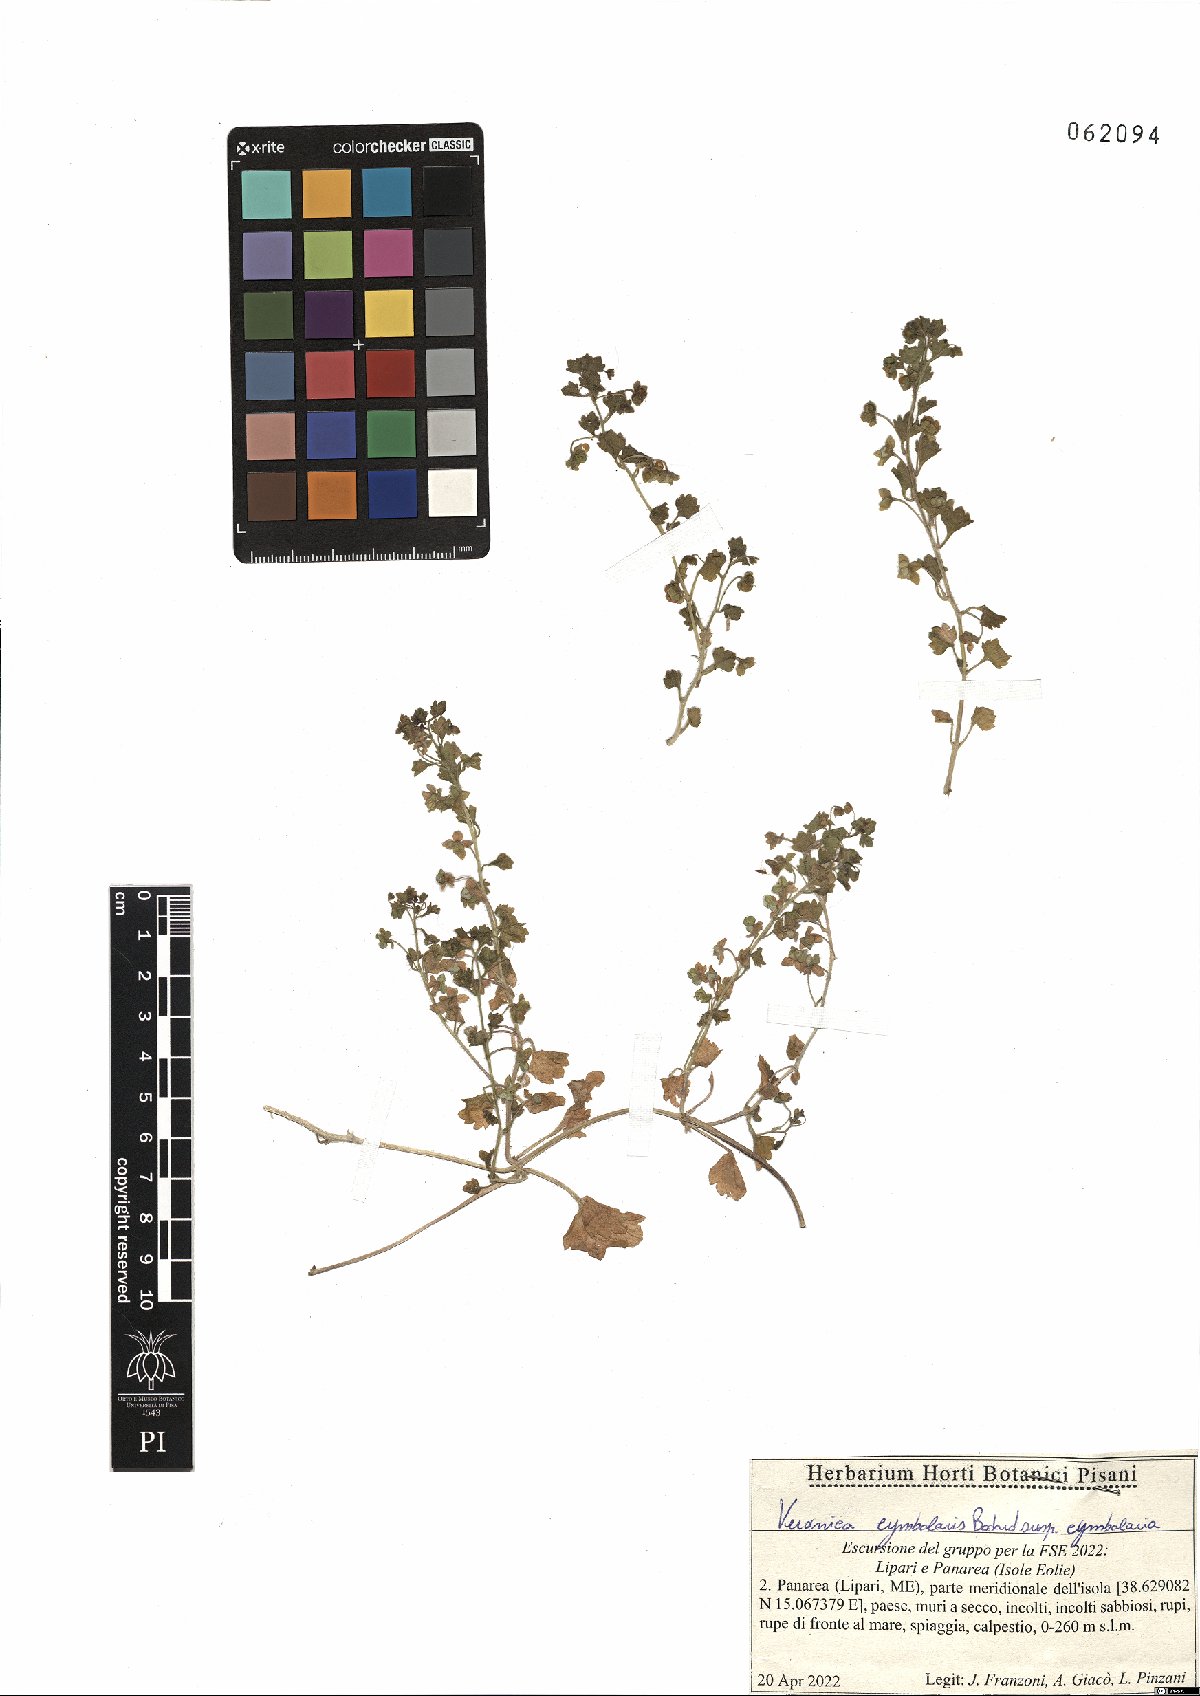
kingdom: Plantae
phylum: Tracheophyta
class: Magnoliopsida
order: Lamiales
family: Plantaginaceae
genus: Veronica
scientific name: Veronica cymbalaria
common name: Pale speedwell
